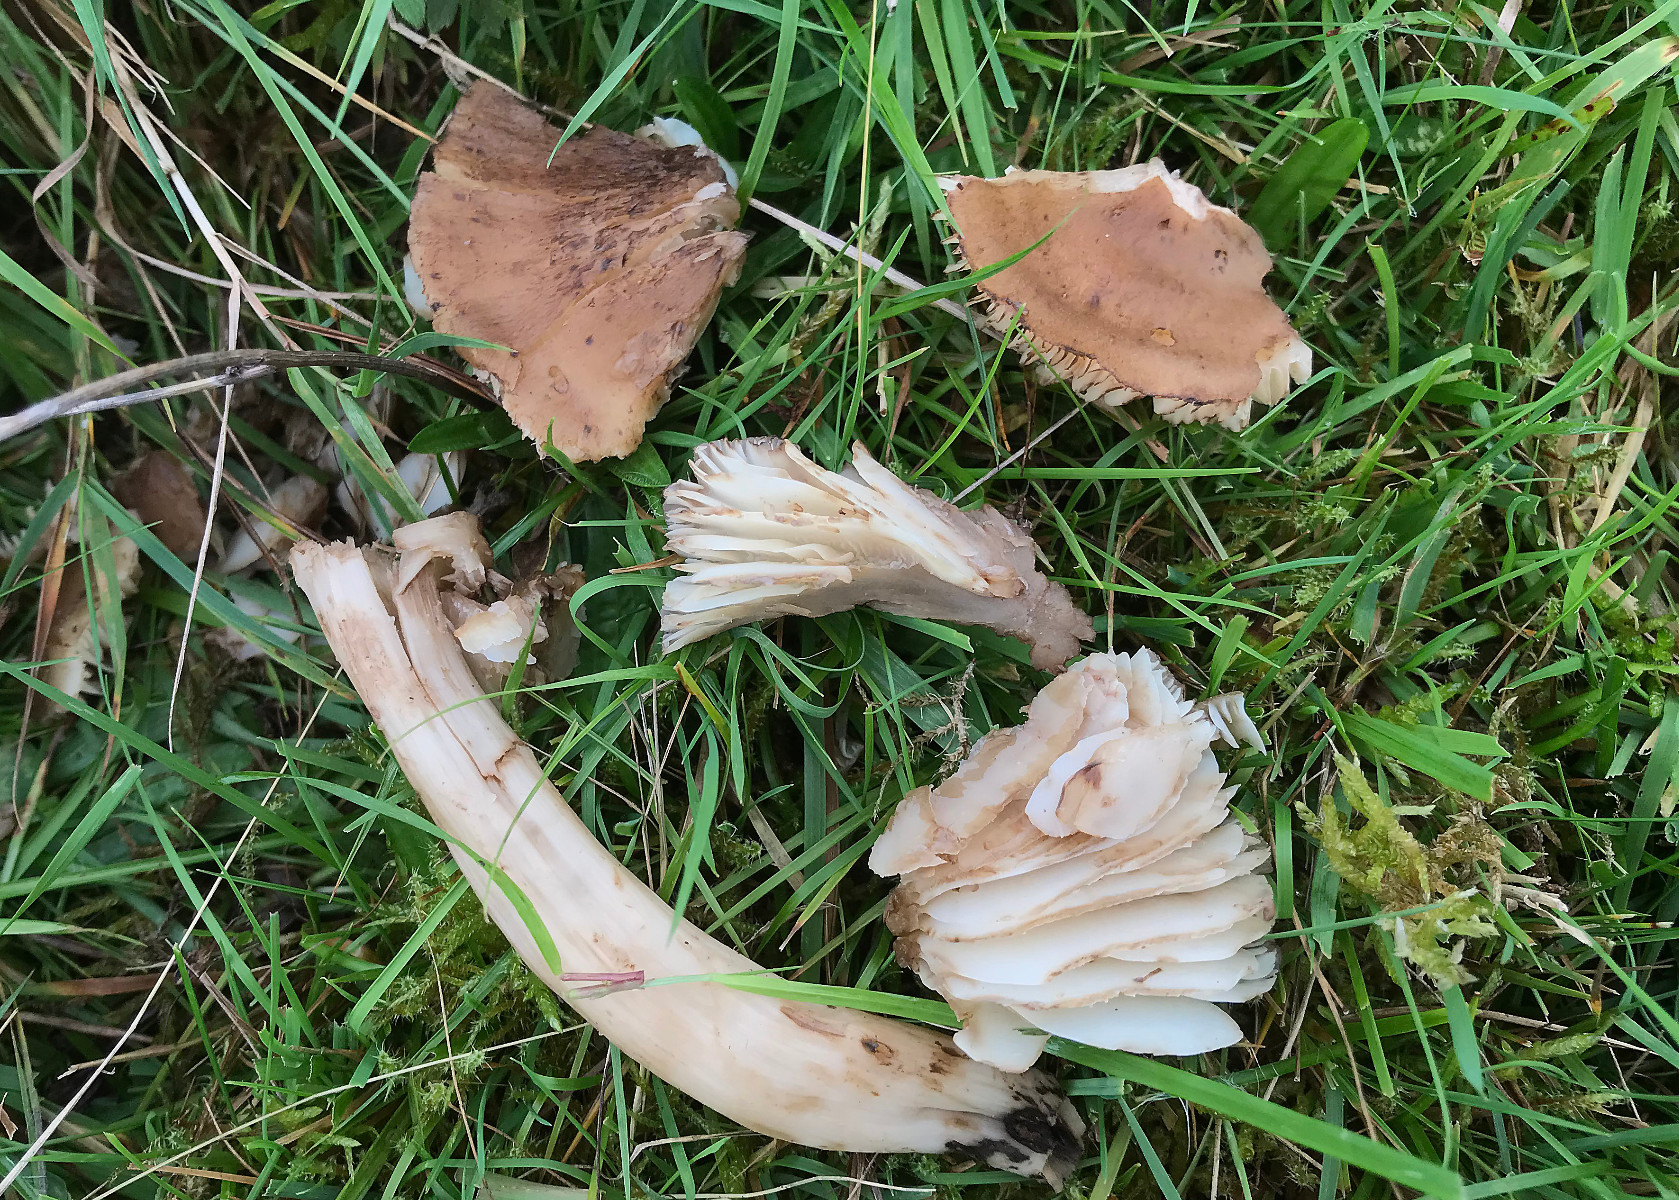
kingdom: Fungi
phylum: Basidiomycota
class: Agaricomycetes
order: Agaricales
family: Hygrophoraceae
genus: Hygrocybe
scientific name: Hygrocybe ingrata
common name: Jensens vokshat
